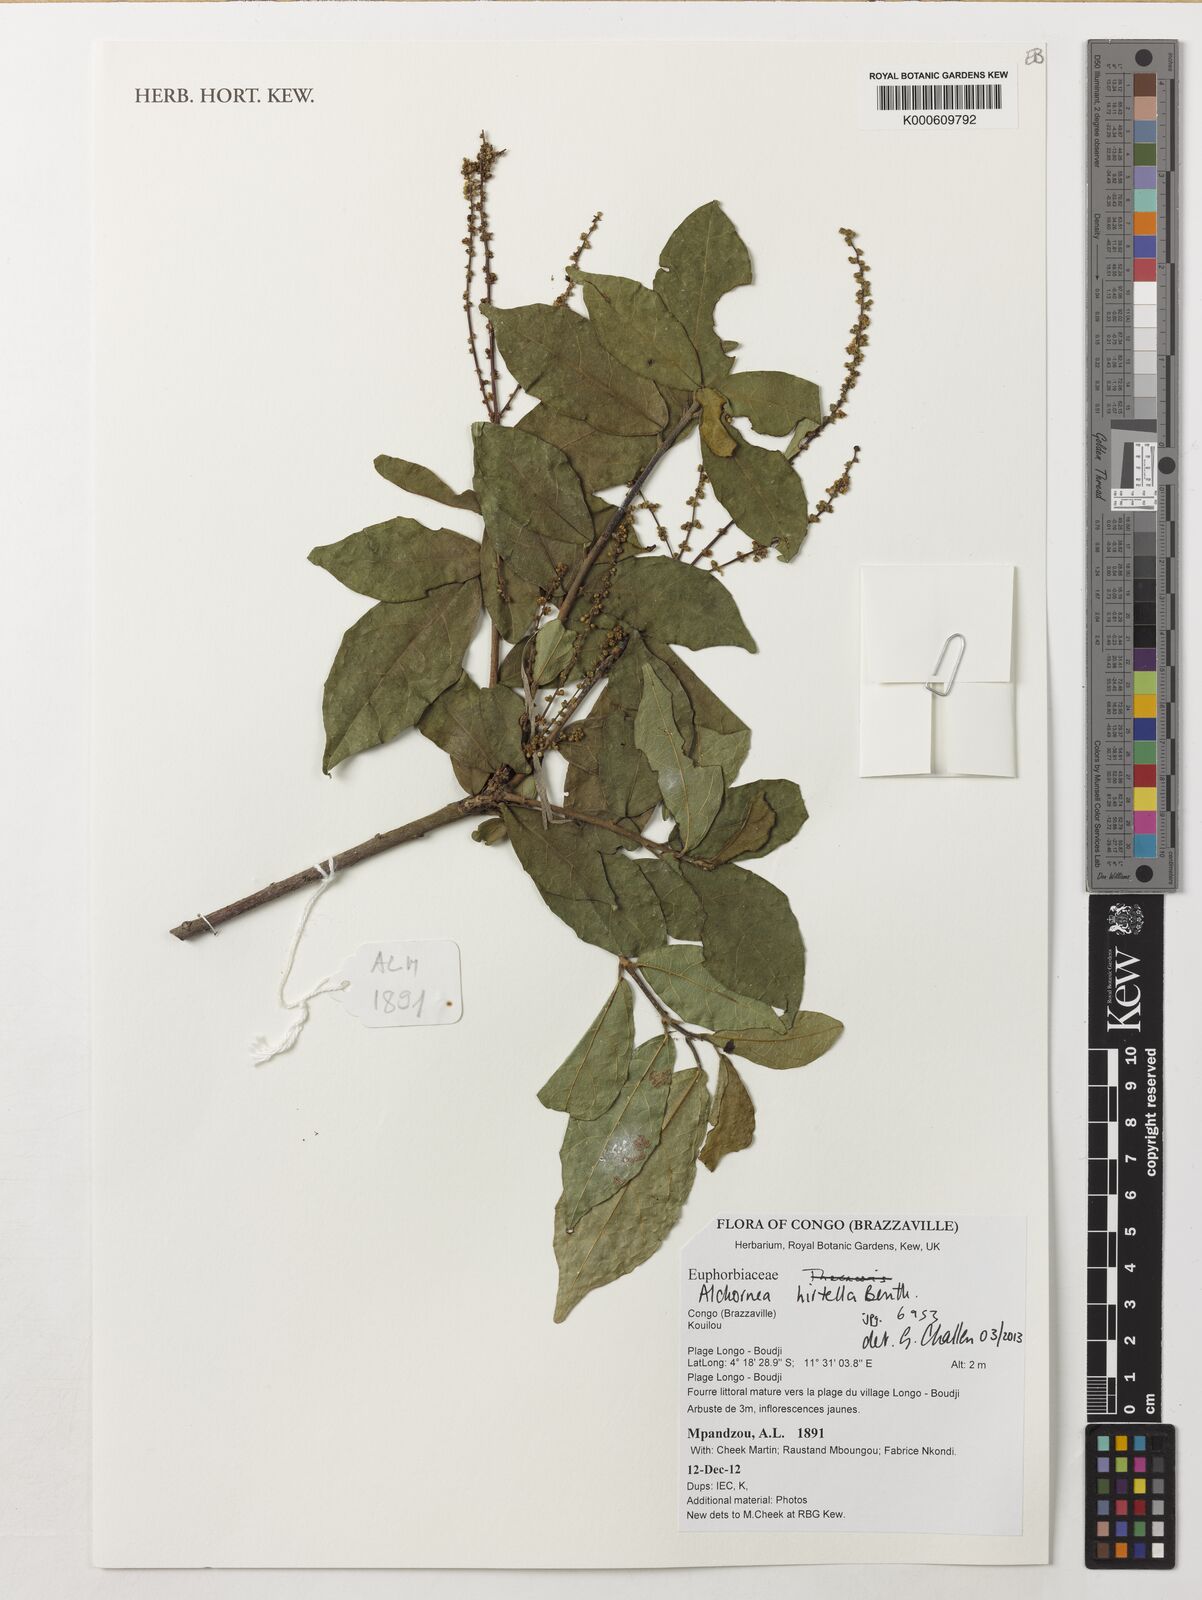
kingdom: Plantae
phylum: Tracheophyta
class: Magnoliopsida
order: Malpighiales
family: Euphorbiaceae
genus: Alchornea
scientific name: Alchornea hirtella
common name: Forest bead-string
